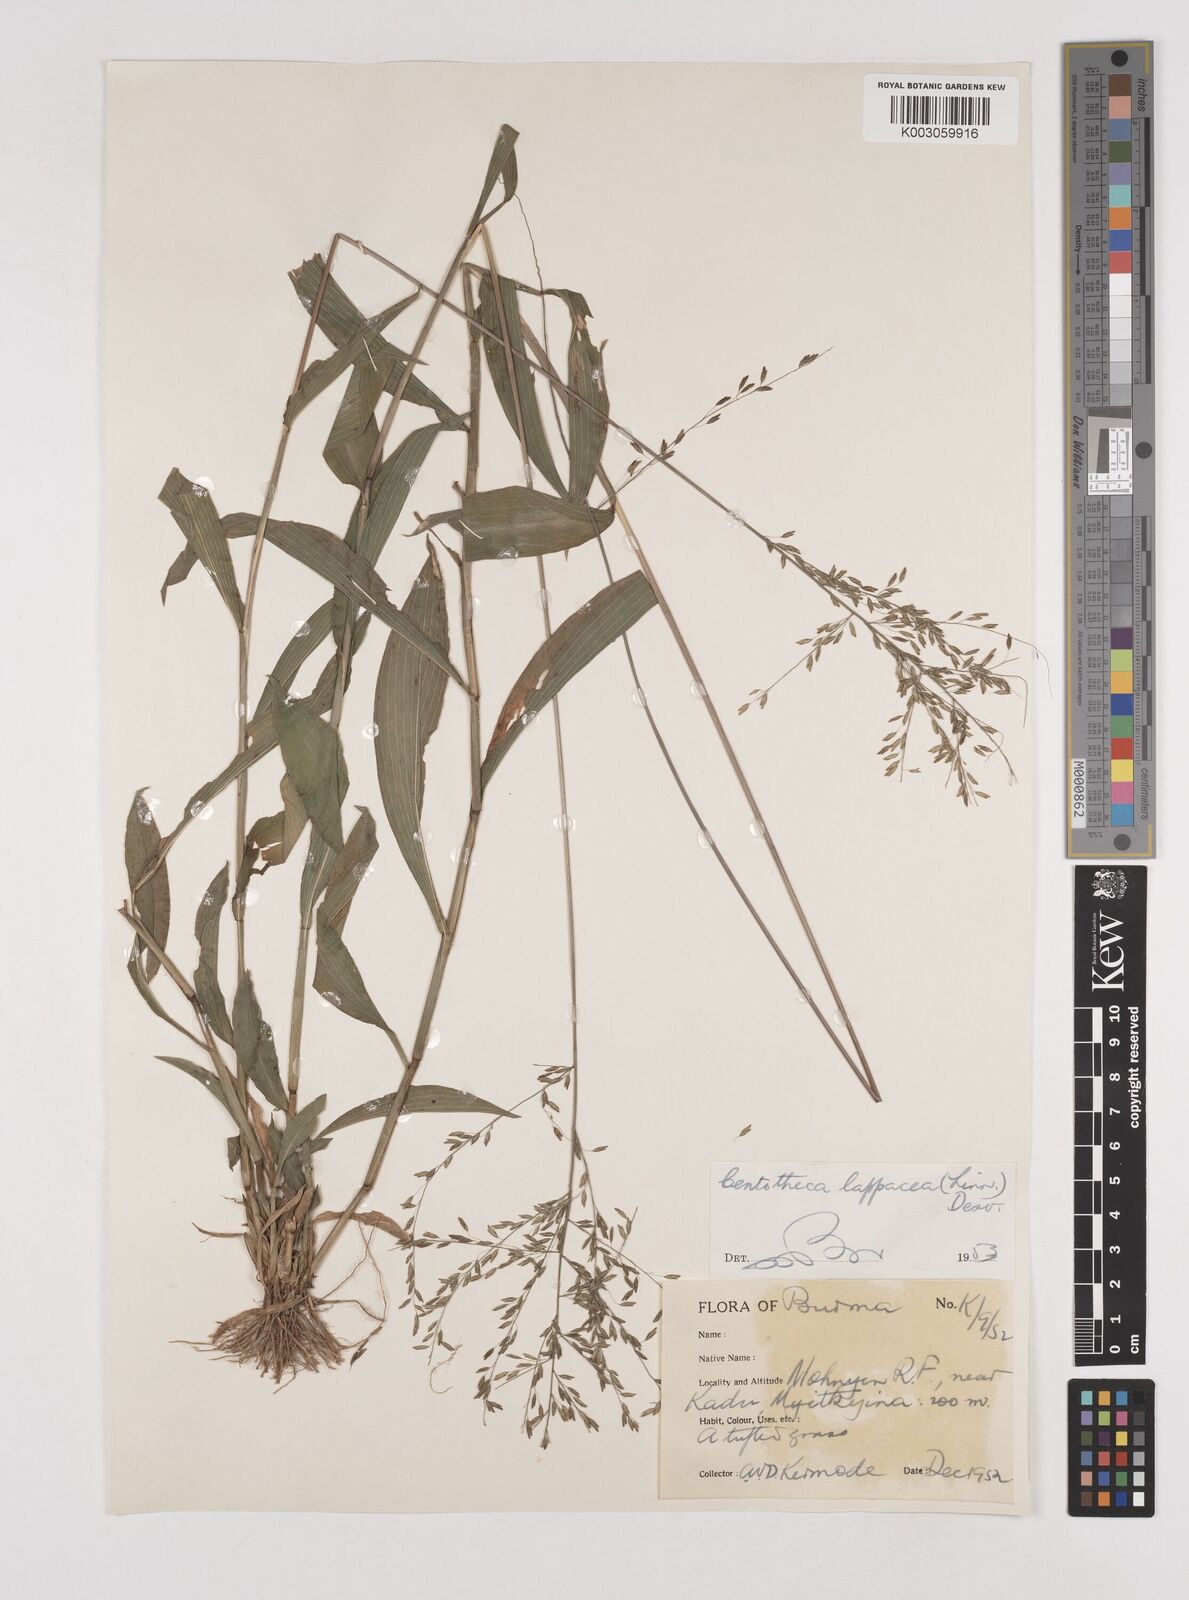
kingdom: Plantae
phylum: Tracheophyta
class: Liliopsida
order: Poales
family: Poaceae
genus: Centotheca
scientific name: Centotheca lappacea
